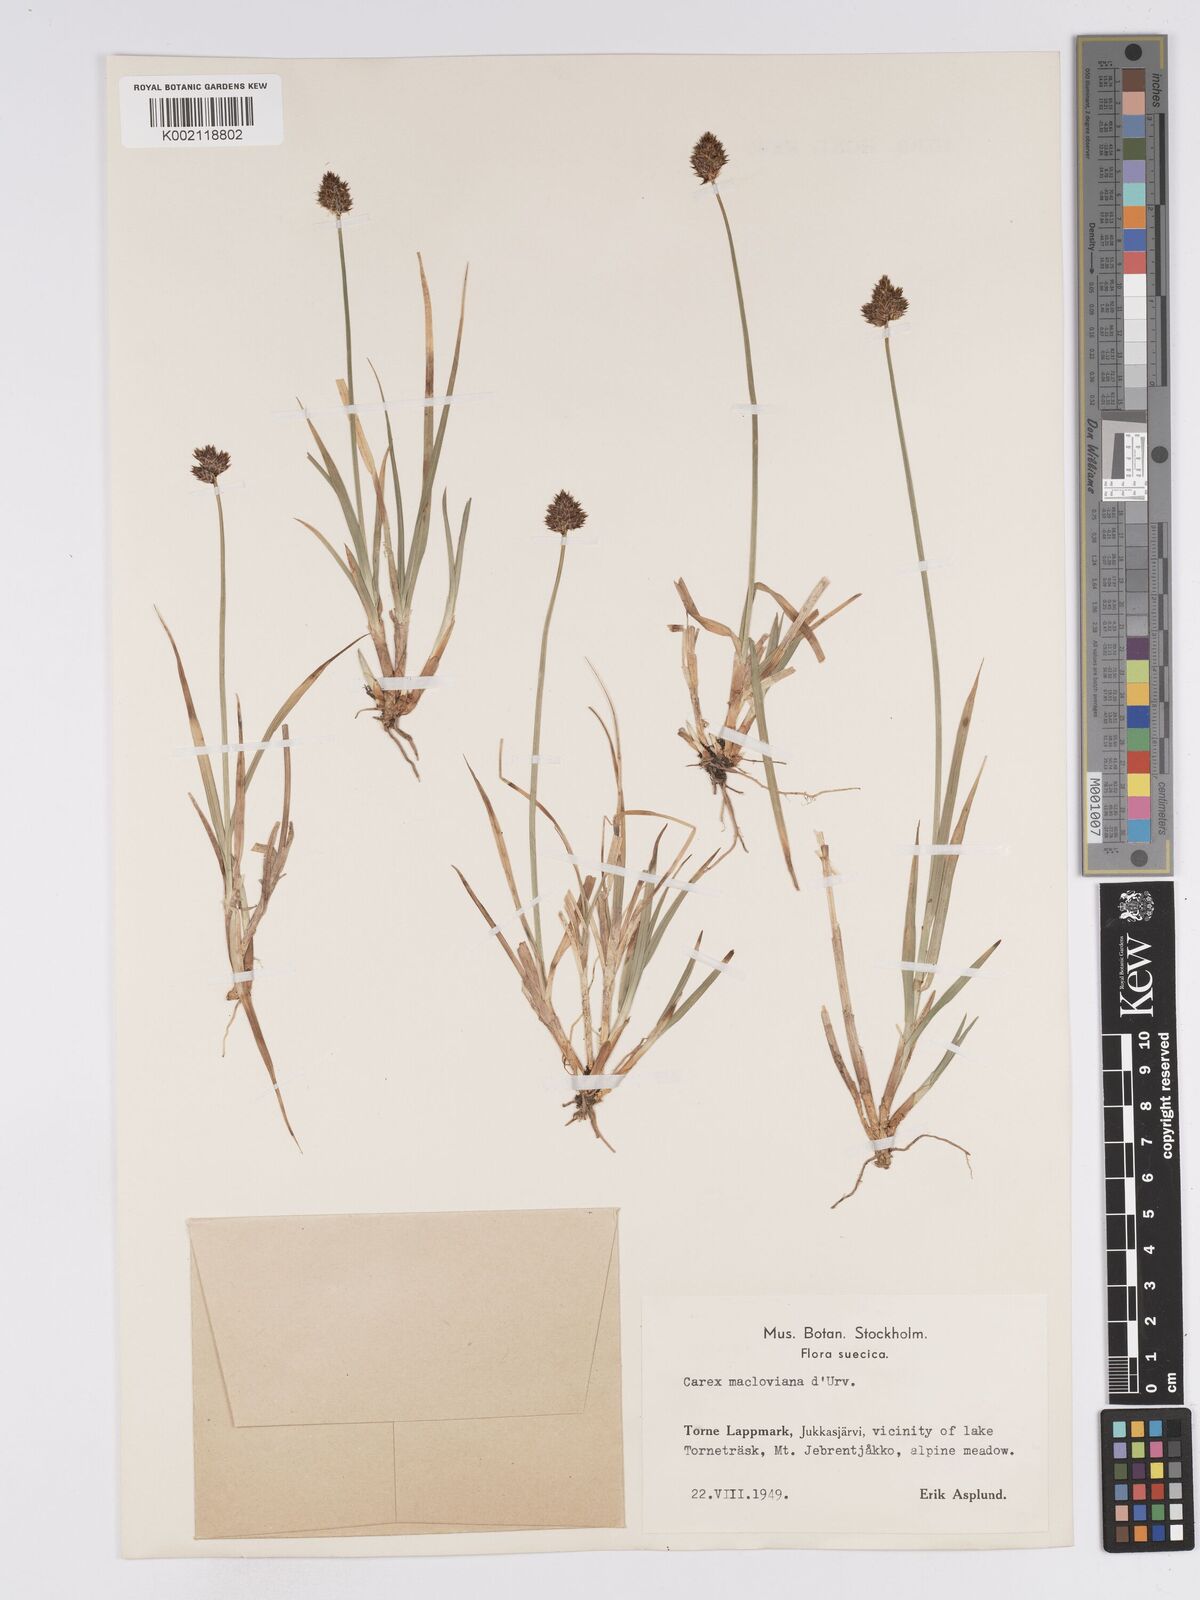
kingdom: Plantae
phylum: Tracheophyta
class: Liliopsida
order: Poales
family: Cyperaceae
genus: Carex
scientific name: Carex macloviana
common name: Falkland island sedge
